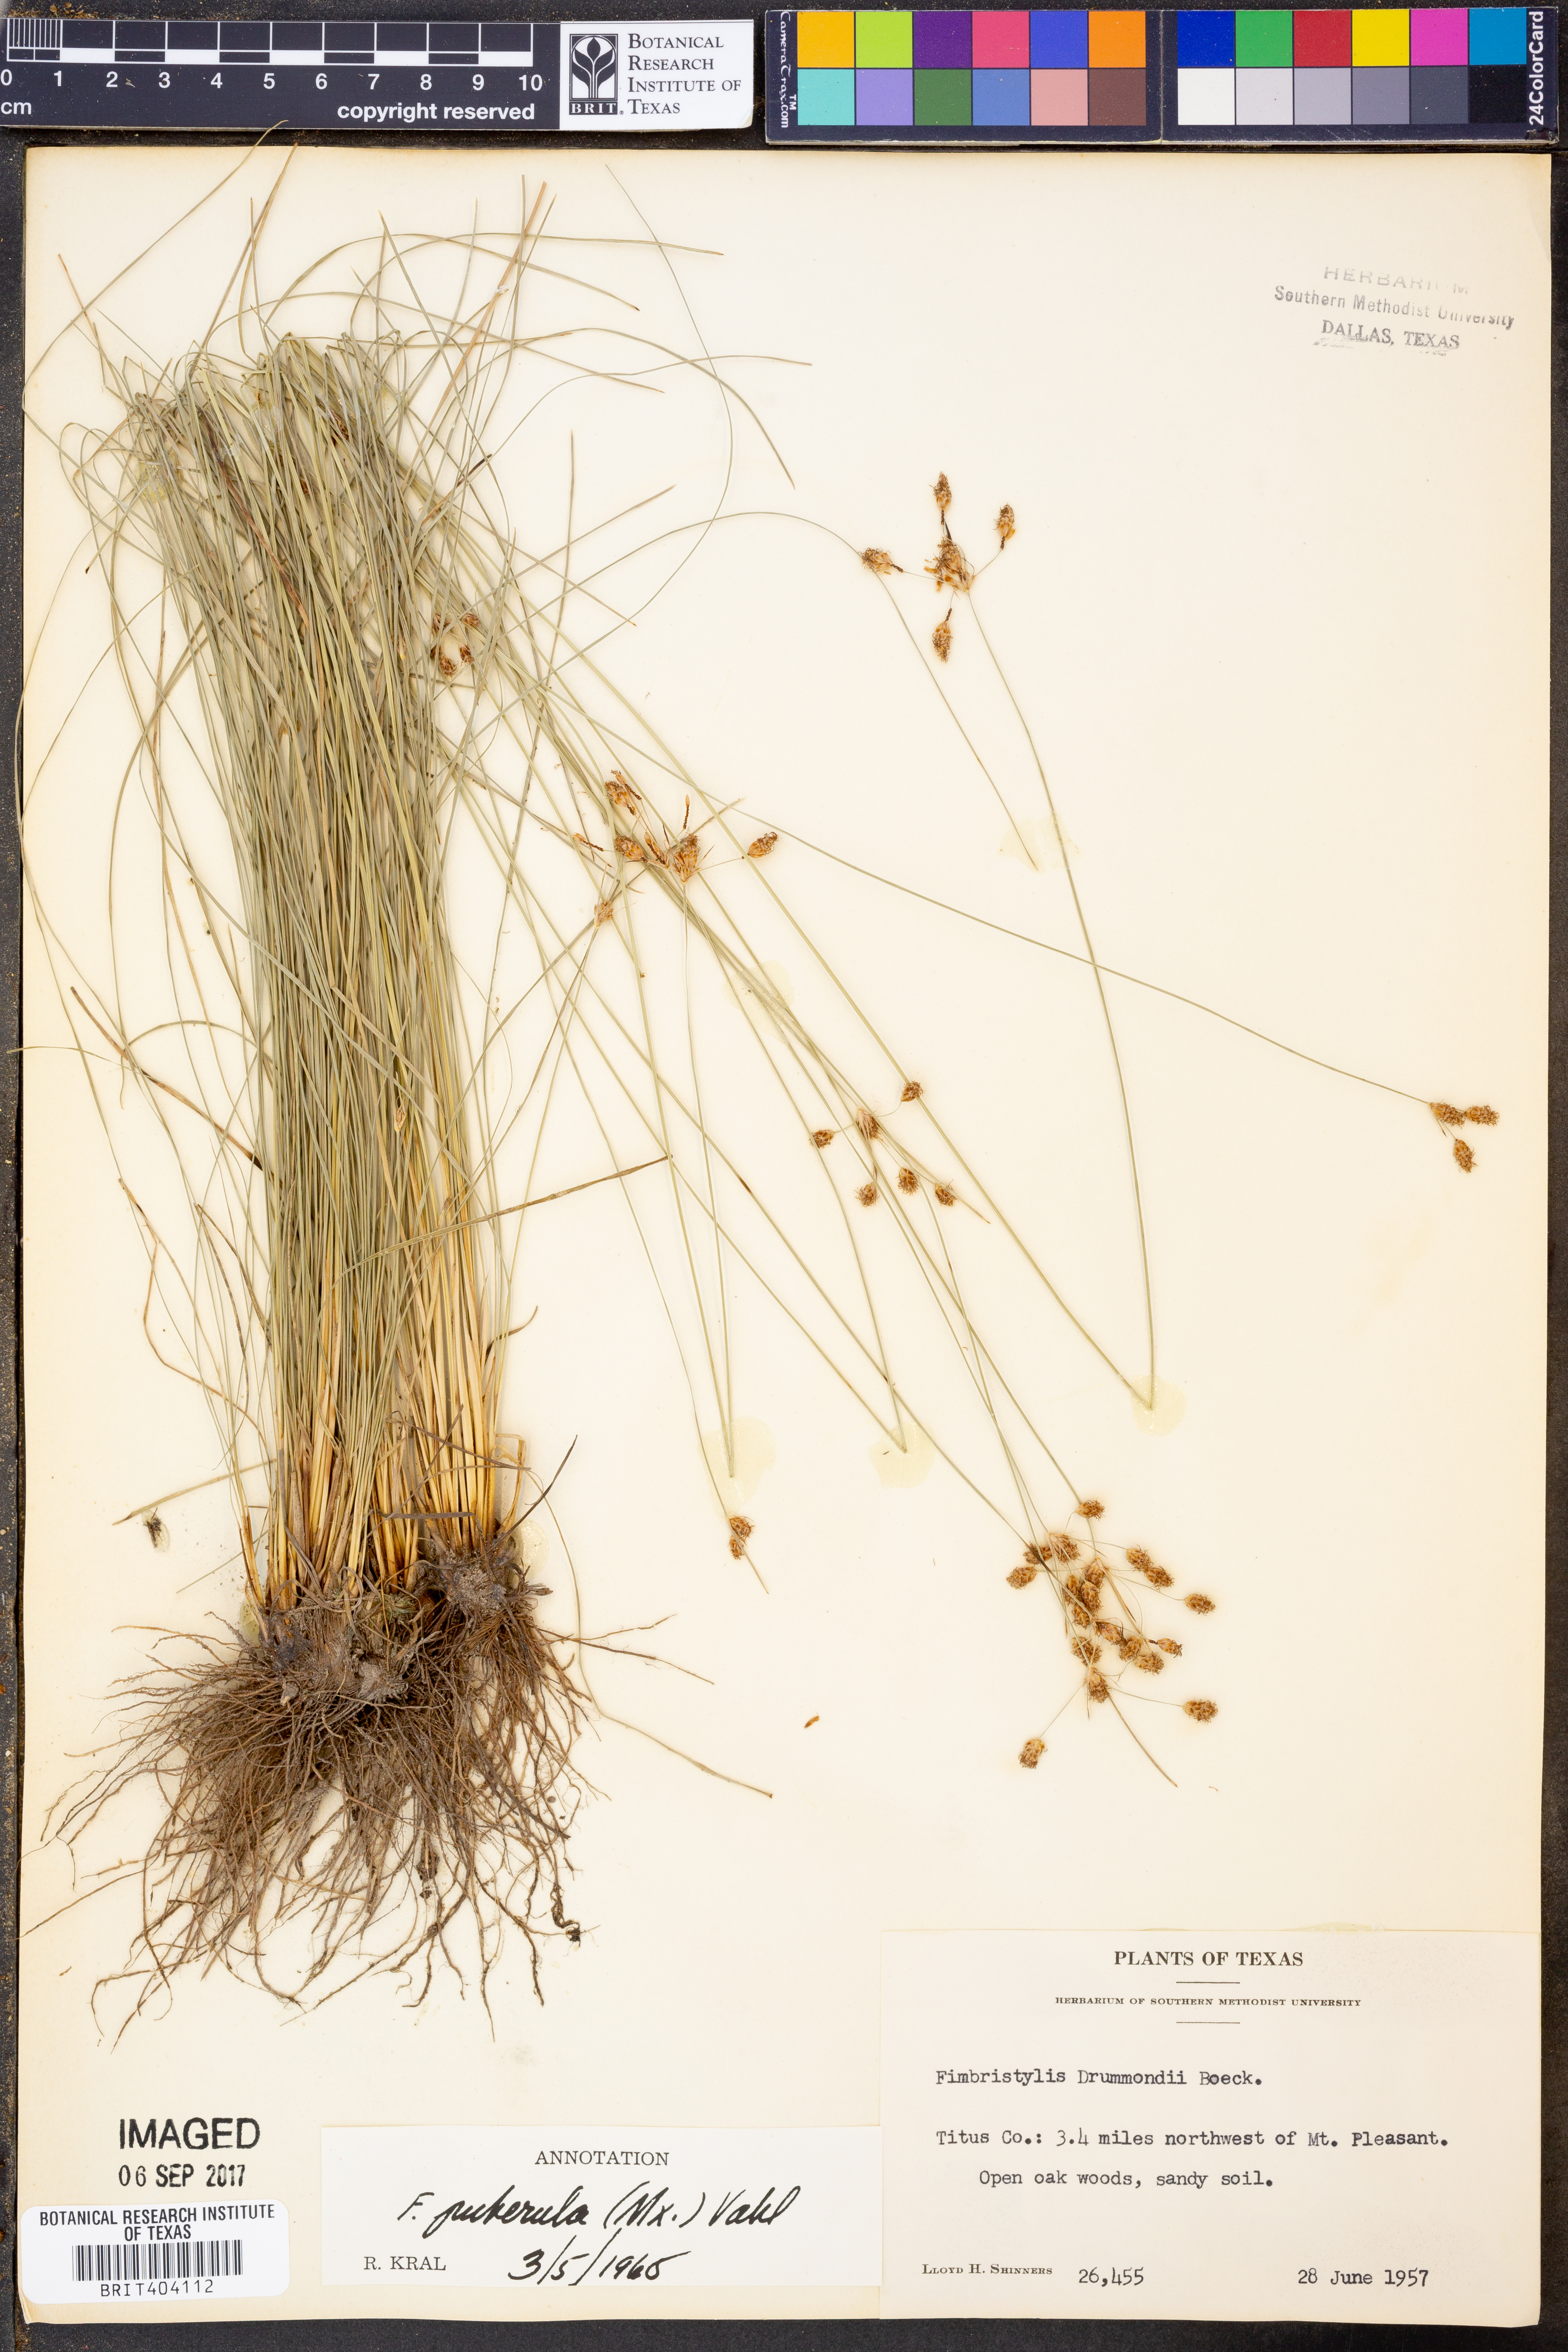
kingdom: Plantae
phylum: Tracheophyta
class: Liliopsida
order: Poales
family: Cyperaceae
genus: Fimbristylis
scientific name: Fimbristylis puberula
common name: Hairy fimbristylis
